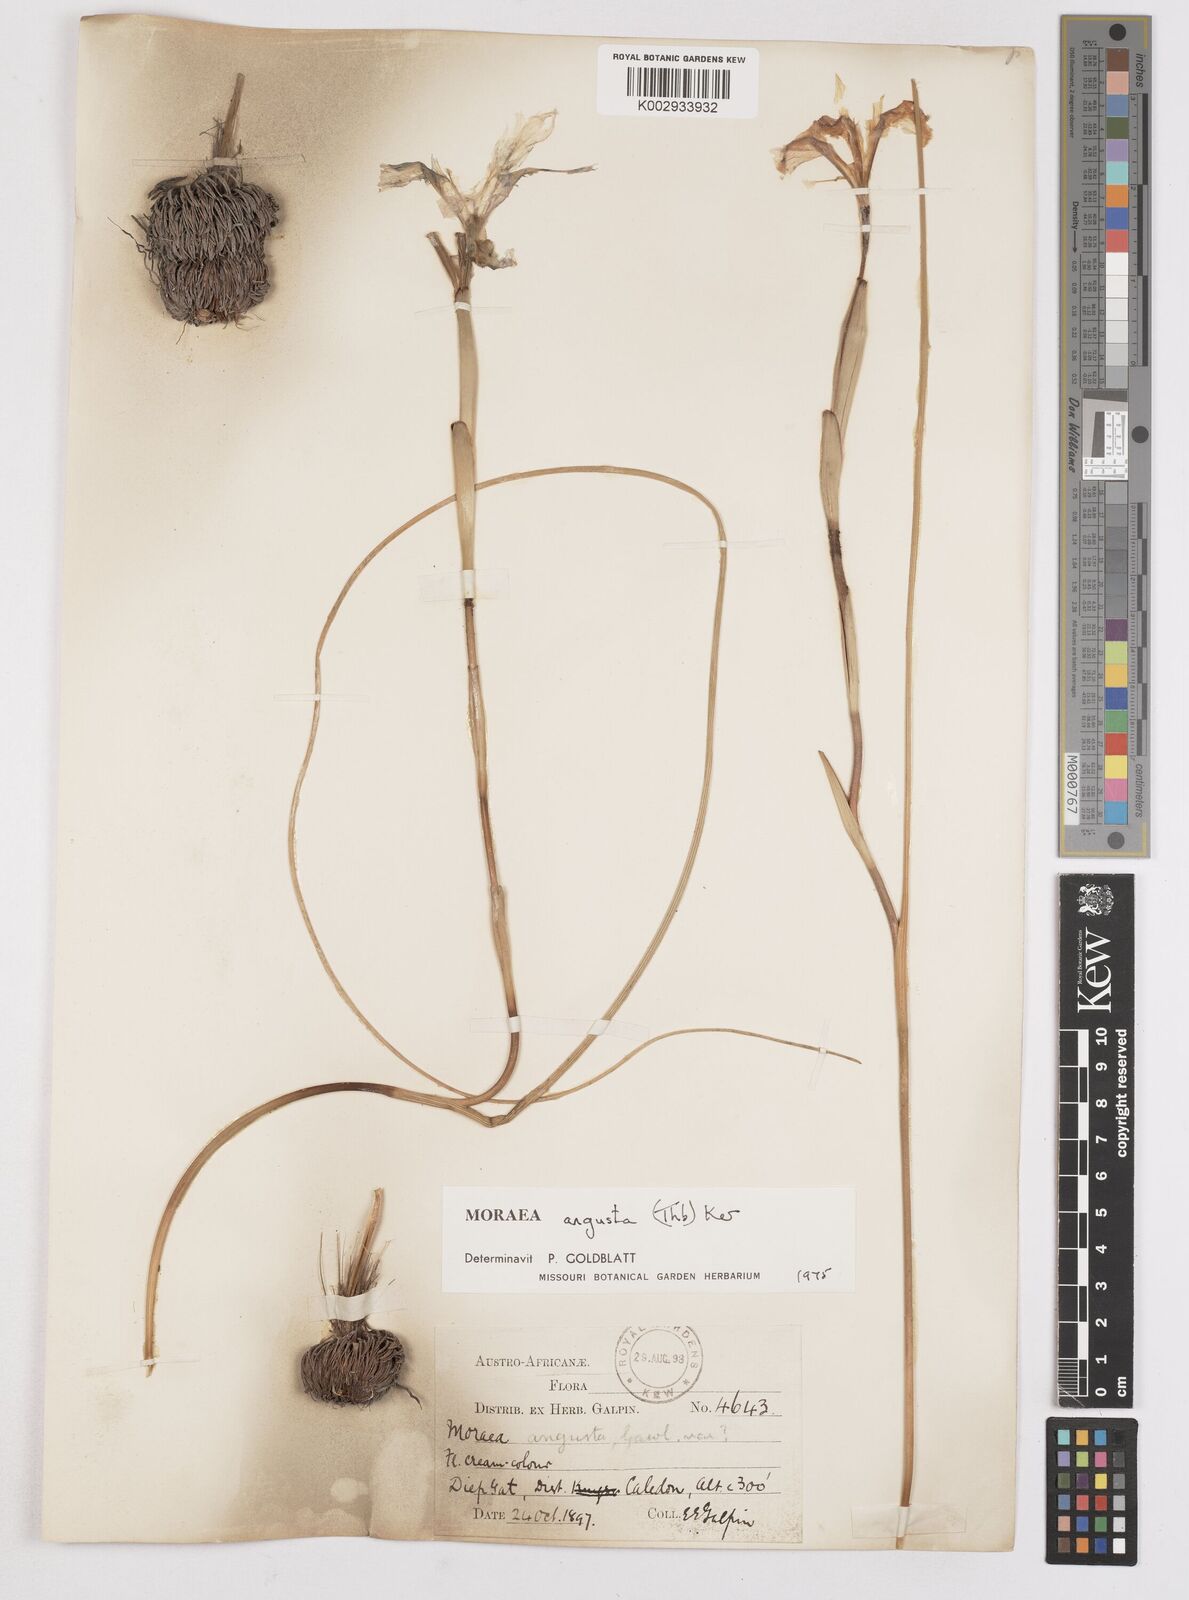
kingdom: Plantae
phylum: Tracheophyta
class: Liliopsida
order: Asparagales
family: Iridaceae
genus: Moraea
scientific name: Moraea angusta
